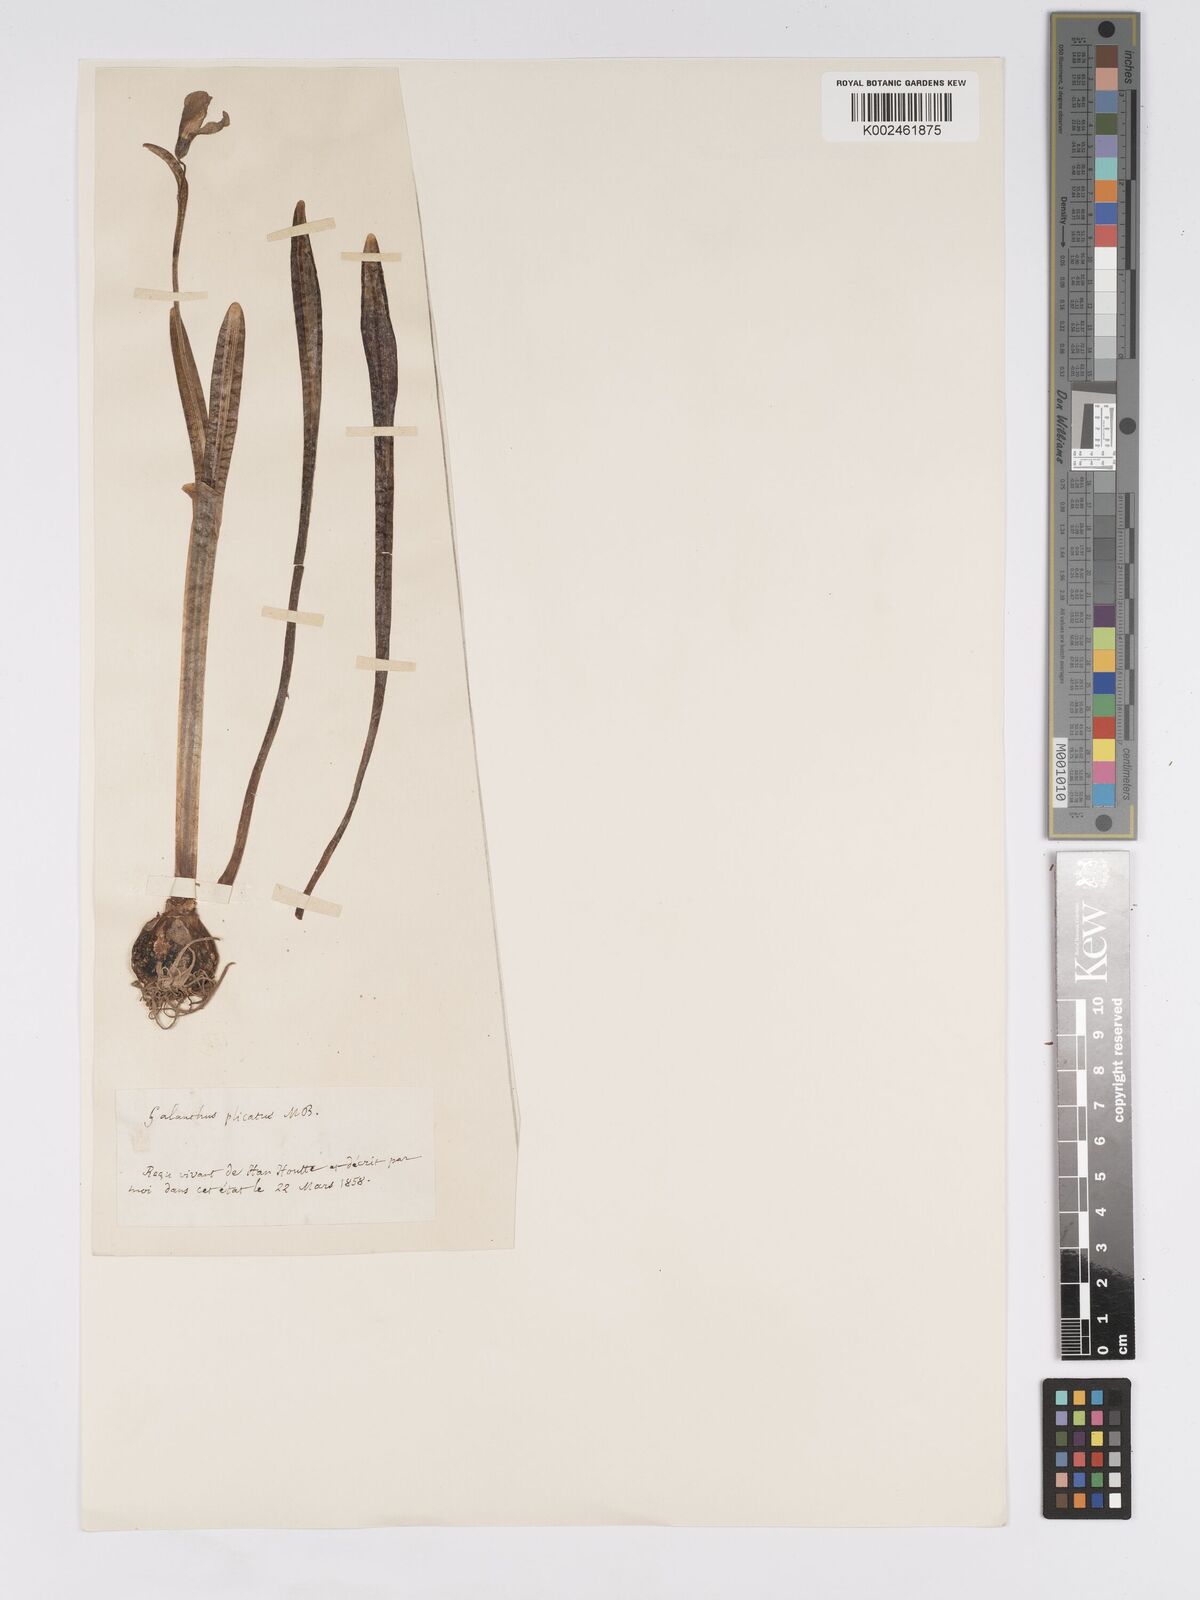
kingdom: Plantae
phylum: Tracheophyta
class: Liliopsida
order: Asparagales
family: Amaryllidaceae
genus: Galanthus
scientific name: Galanthus plicatus
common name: Pleated snowdrop
